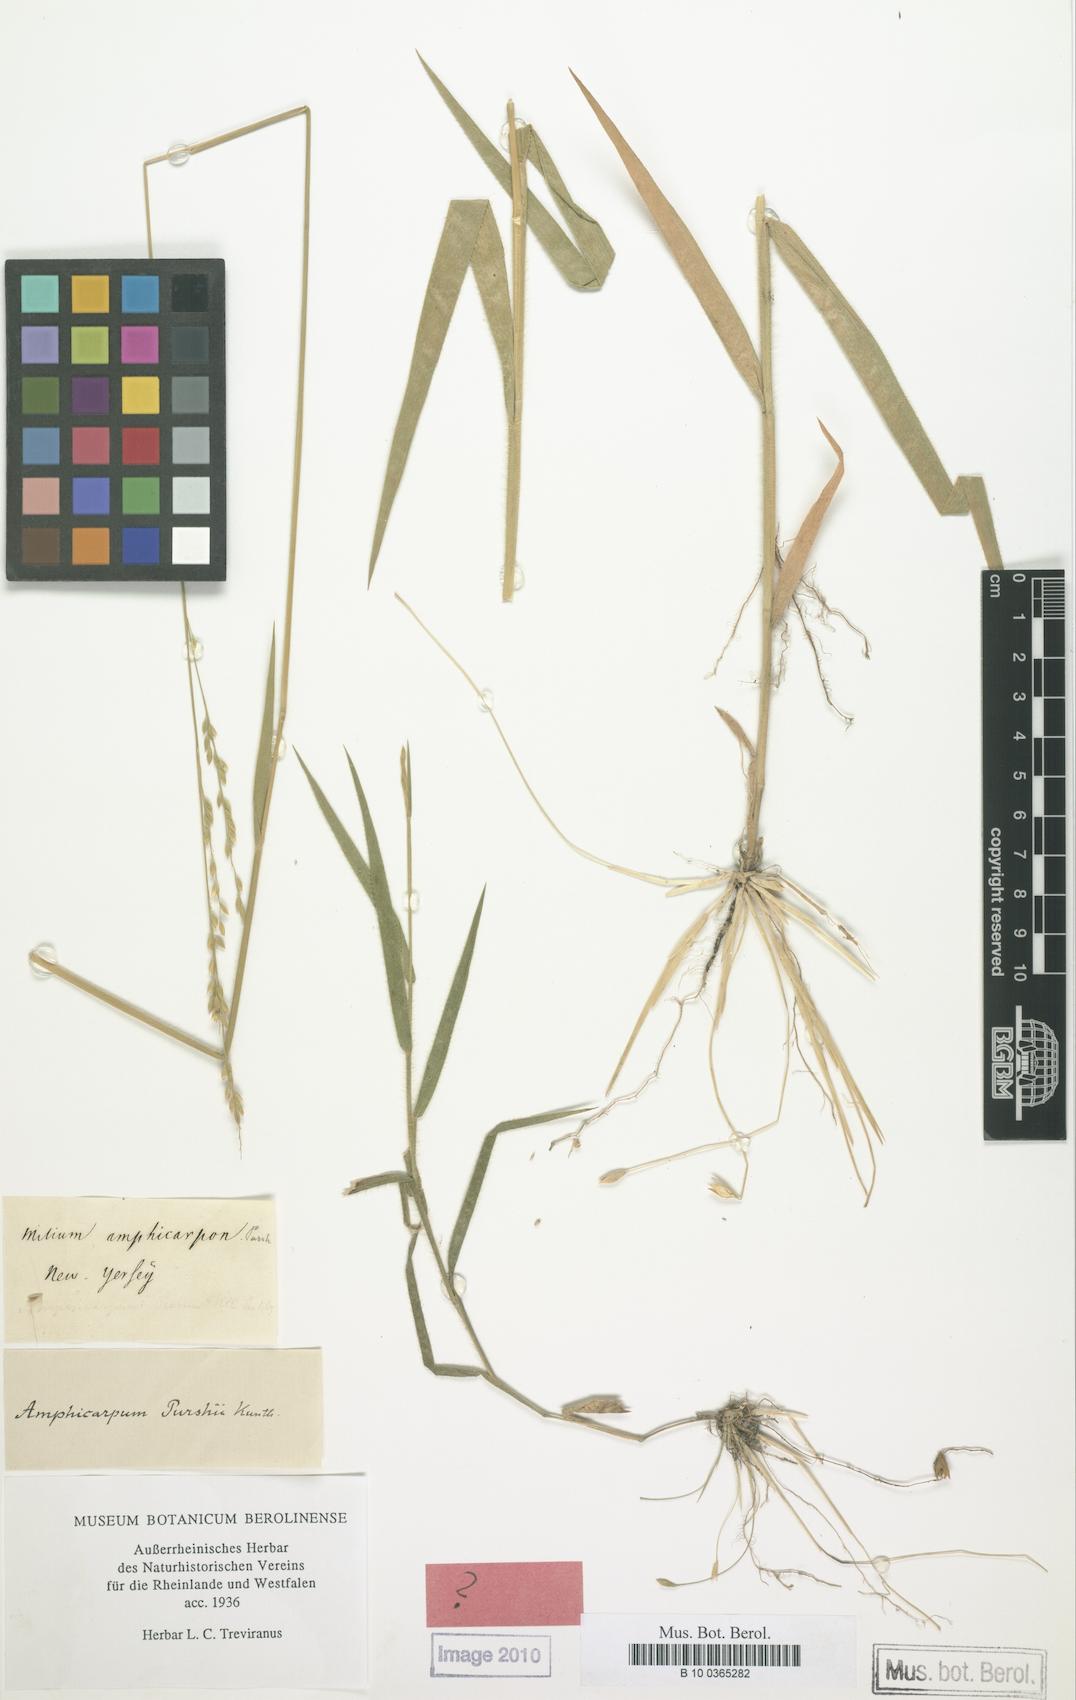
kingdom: Plantae
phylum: Tracheophyta
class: Liliopsida
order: Poales
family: Poaceae
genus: Amphicarpum
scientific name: Amphicarpum amphicarpon
